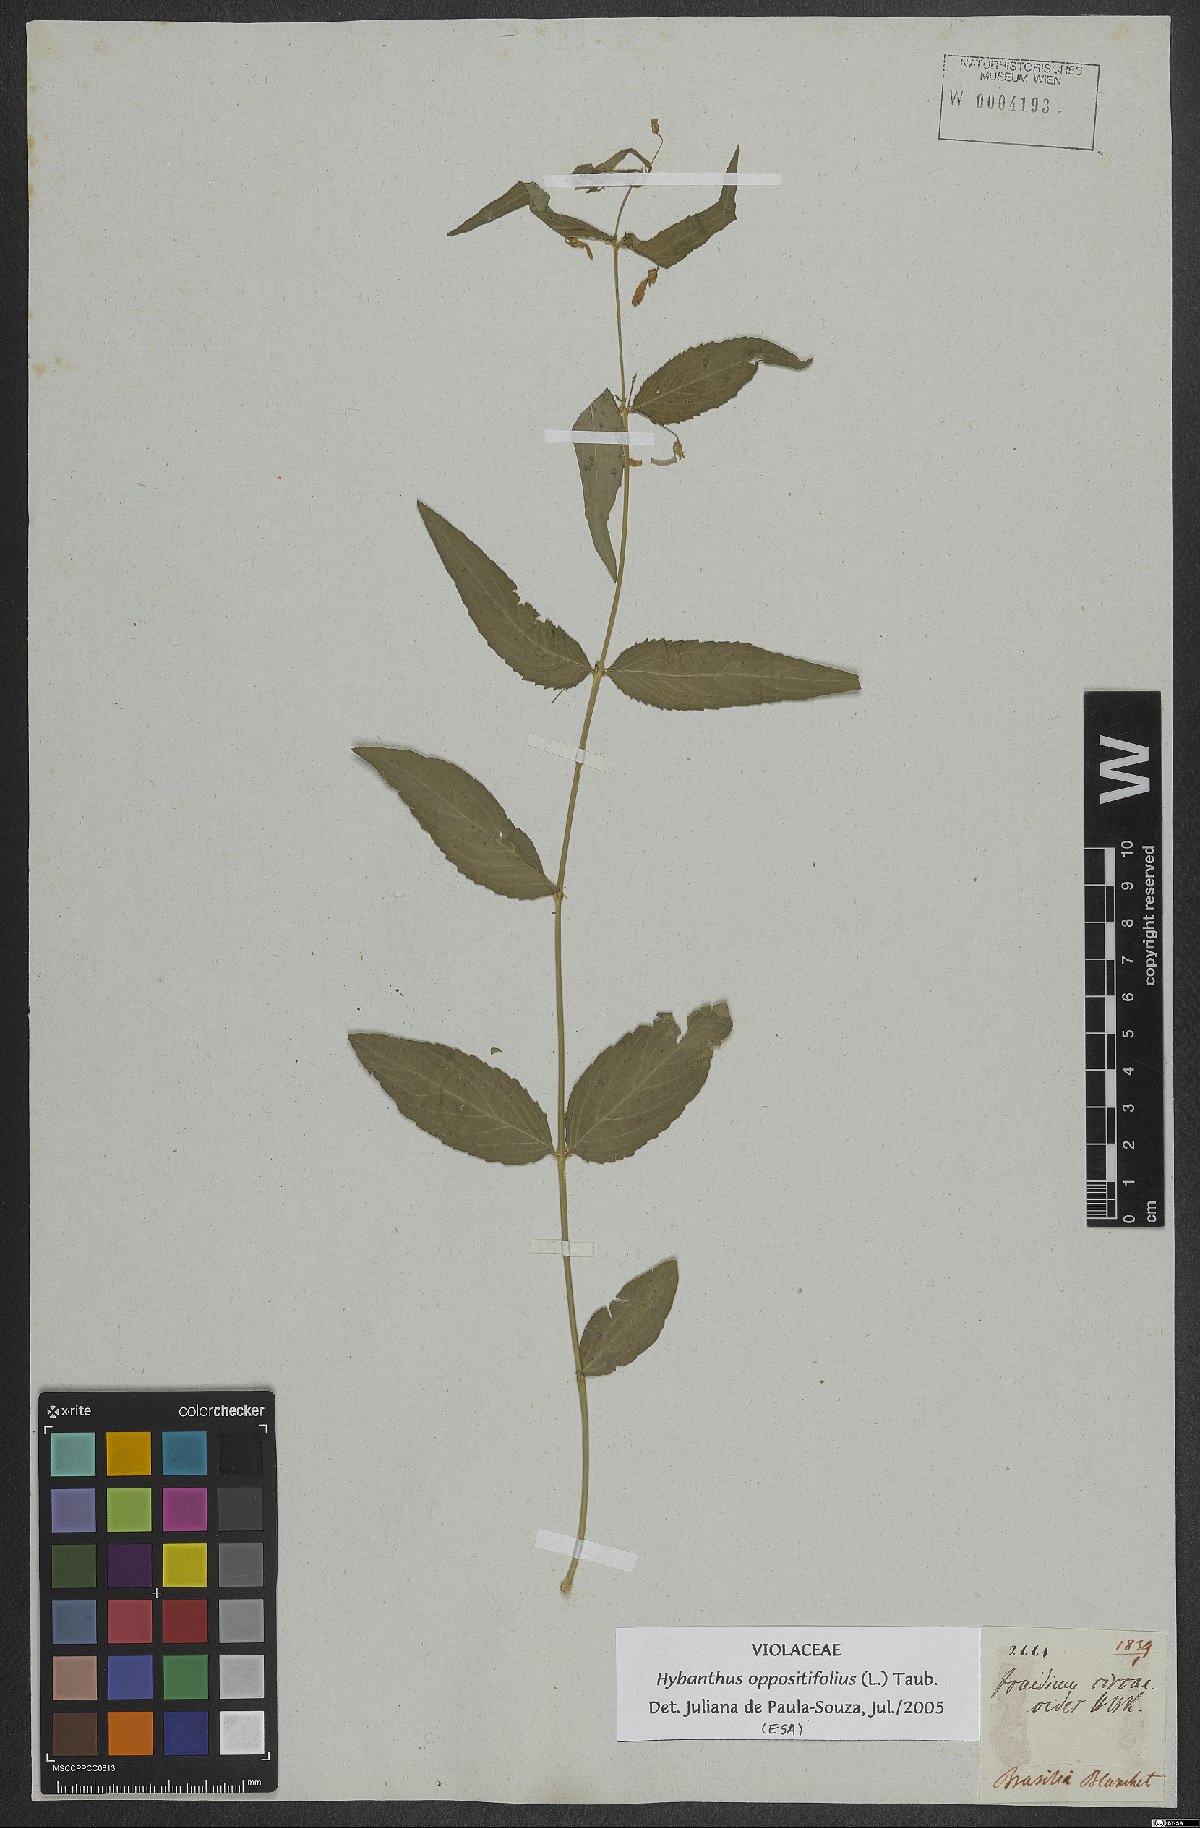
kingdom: Plantae
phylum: Tracheophyta
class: Magnoliopsida
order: Malpighiales
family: Violaceae
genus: Pombalia
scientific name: Pombalia oppositifolia
